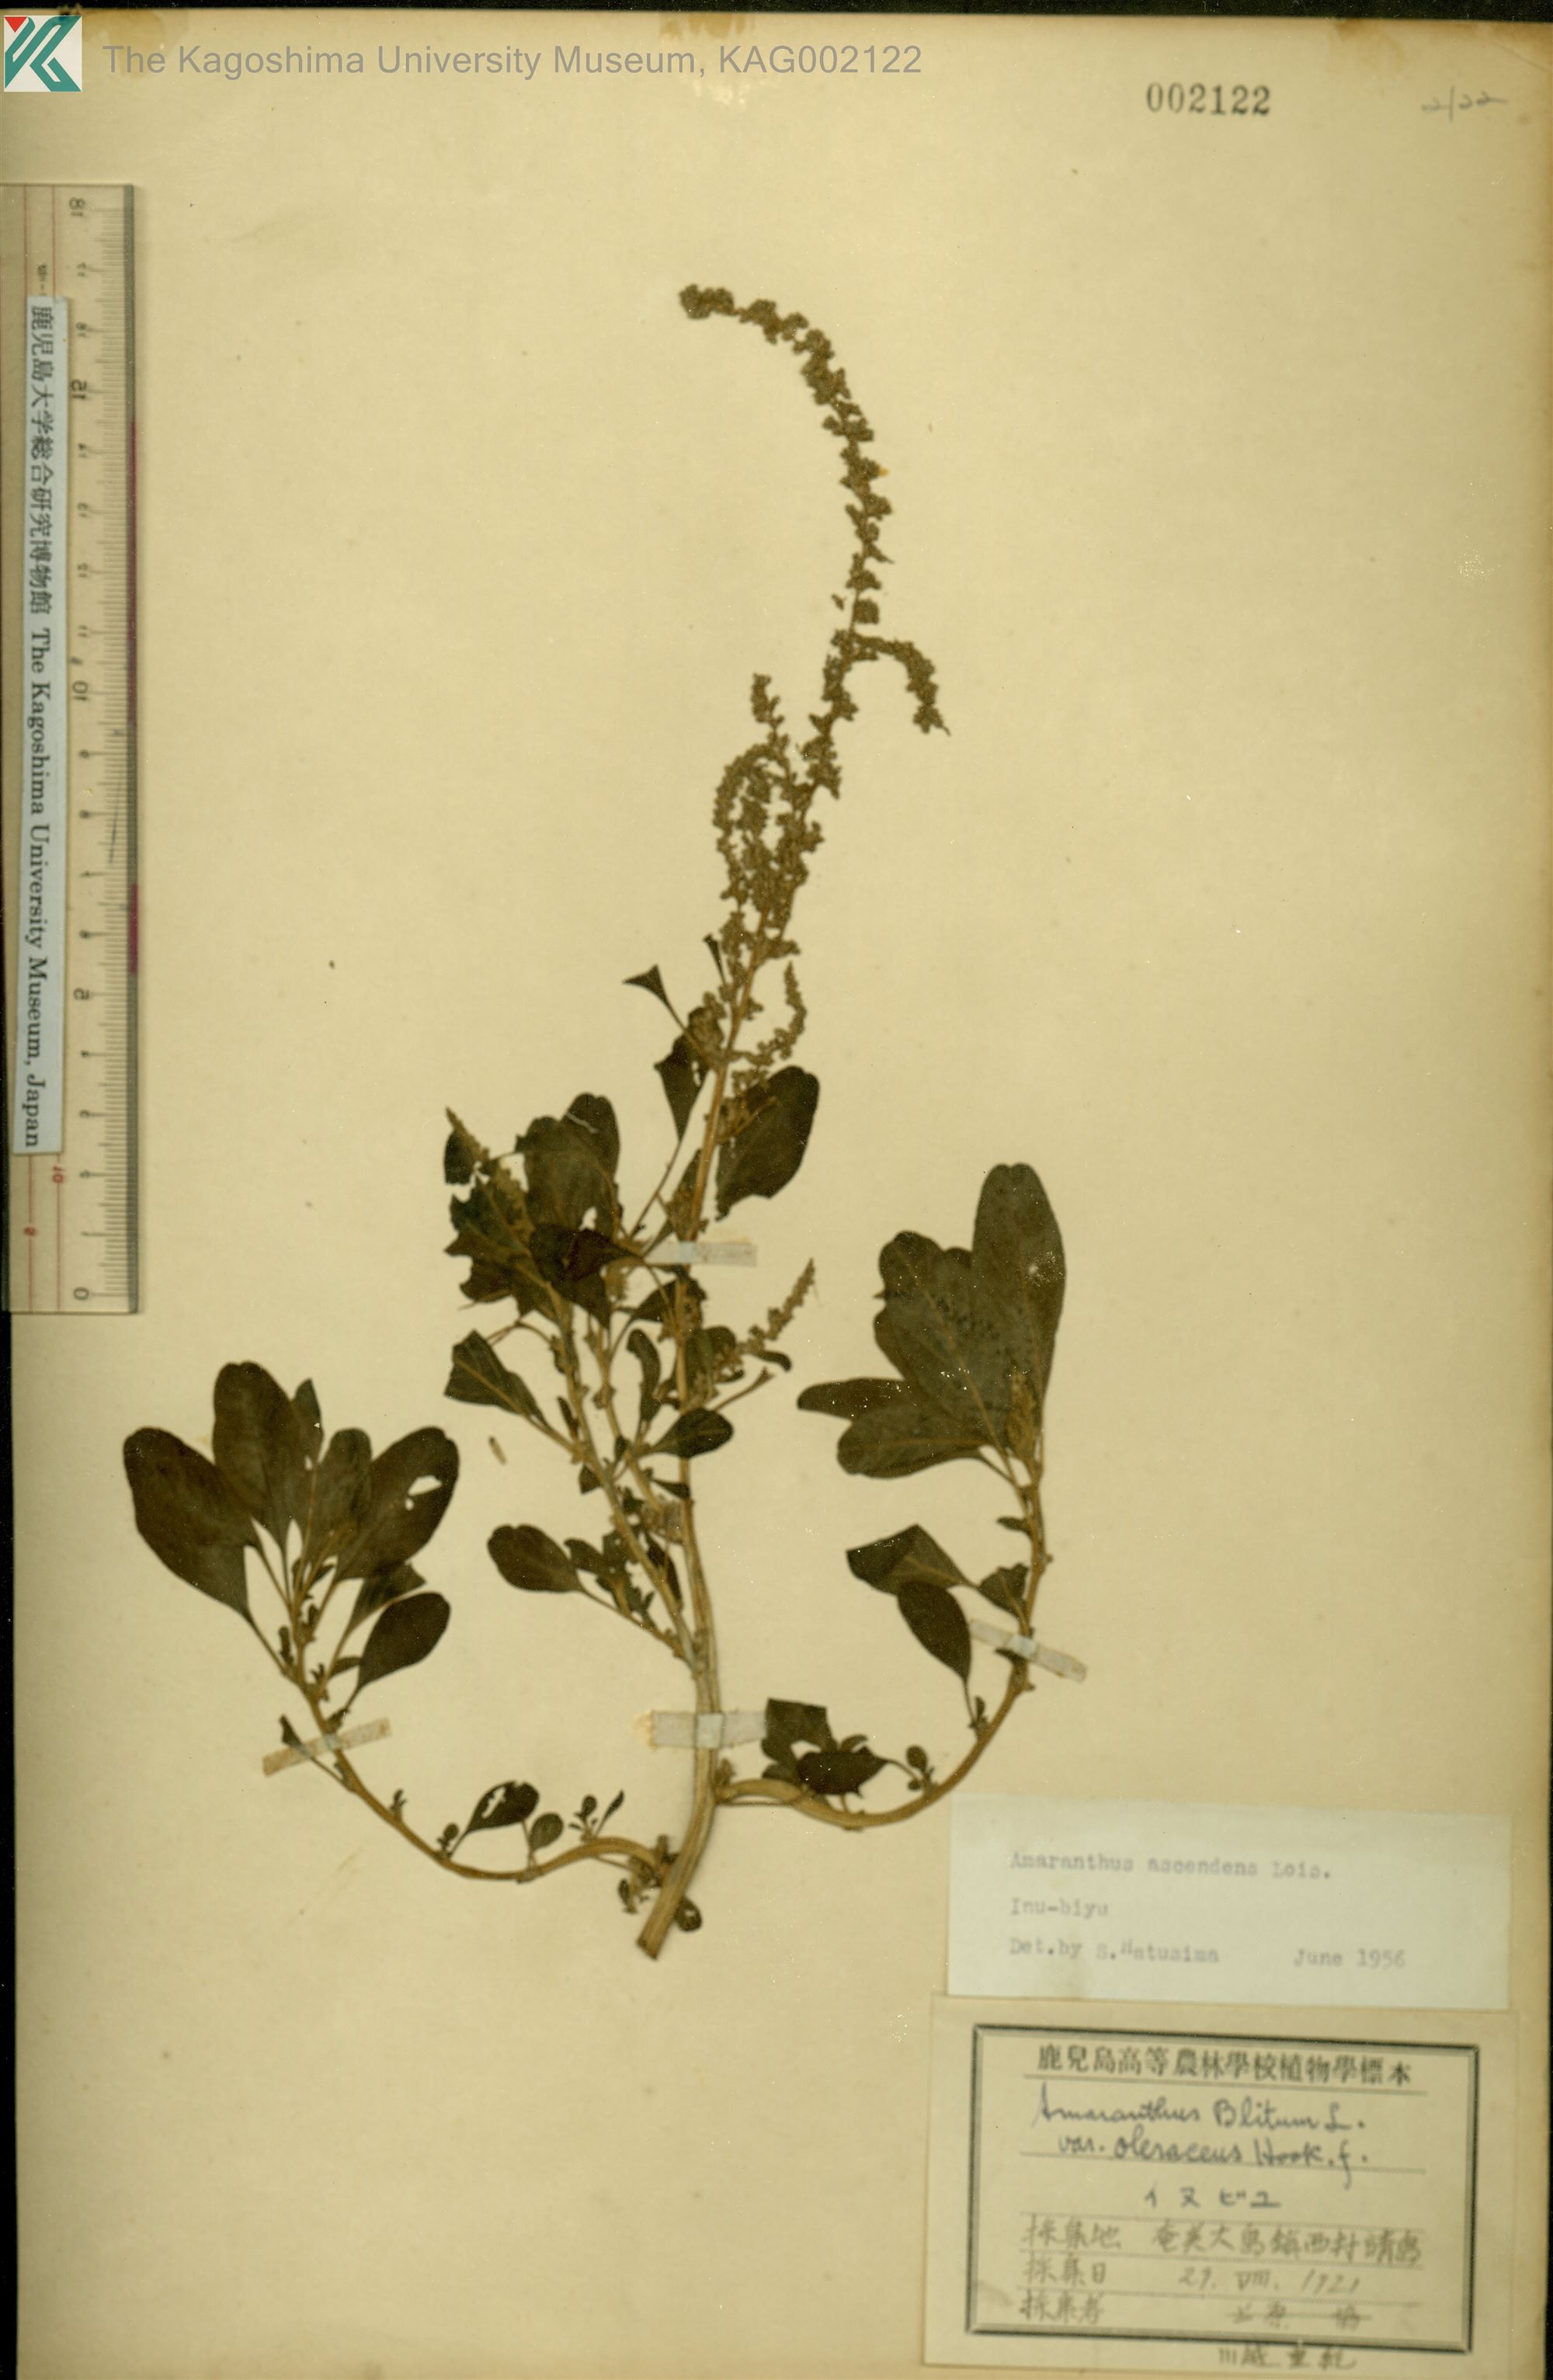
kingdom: Plantae
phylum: Tracheophyta
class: Magnoliopsida
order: Caryophyllales
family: Amaranthaceae
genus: Amaranthus
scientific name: Amaranthus blitum
